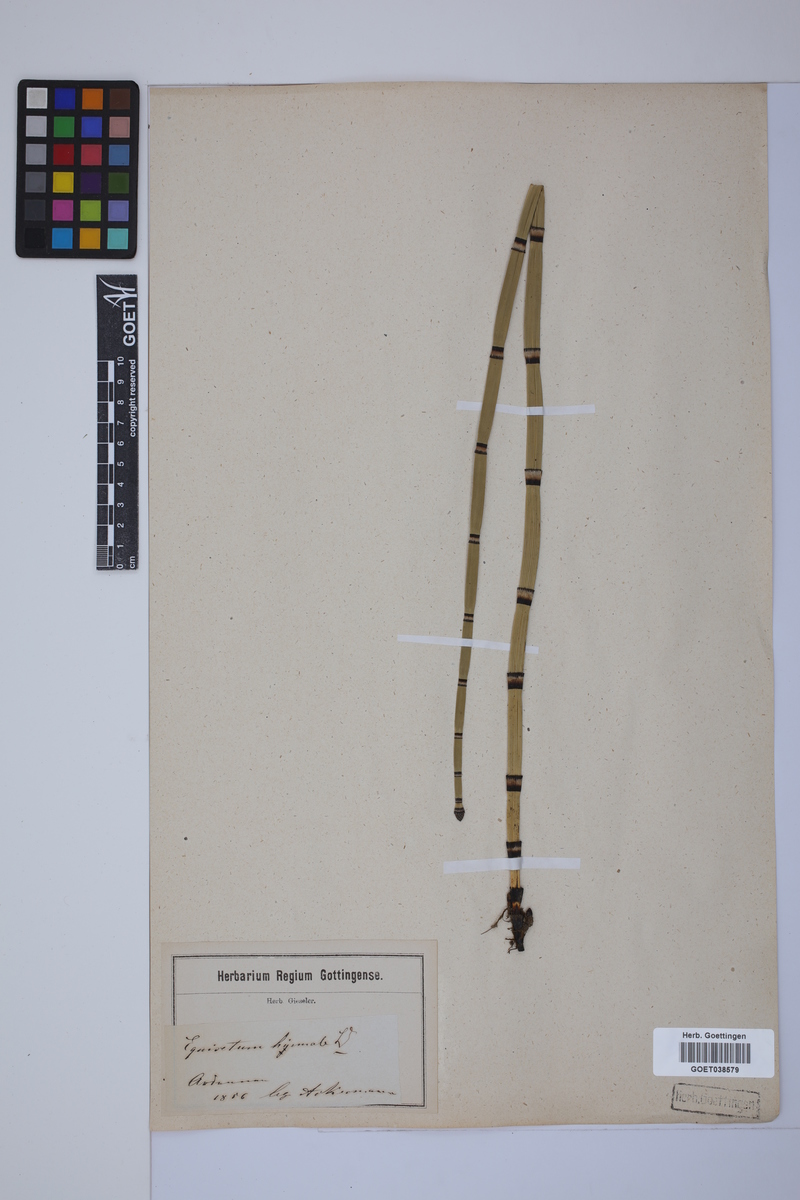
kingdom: Plantae
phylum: Tracheophyta
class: Polypodiopsida
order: Equisetales
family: Equisetaceae
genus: Equisetum
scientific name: Equisetum hyemale
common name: Rough horsetail
